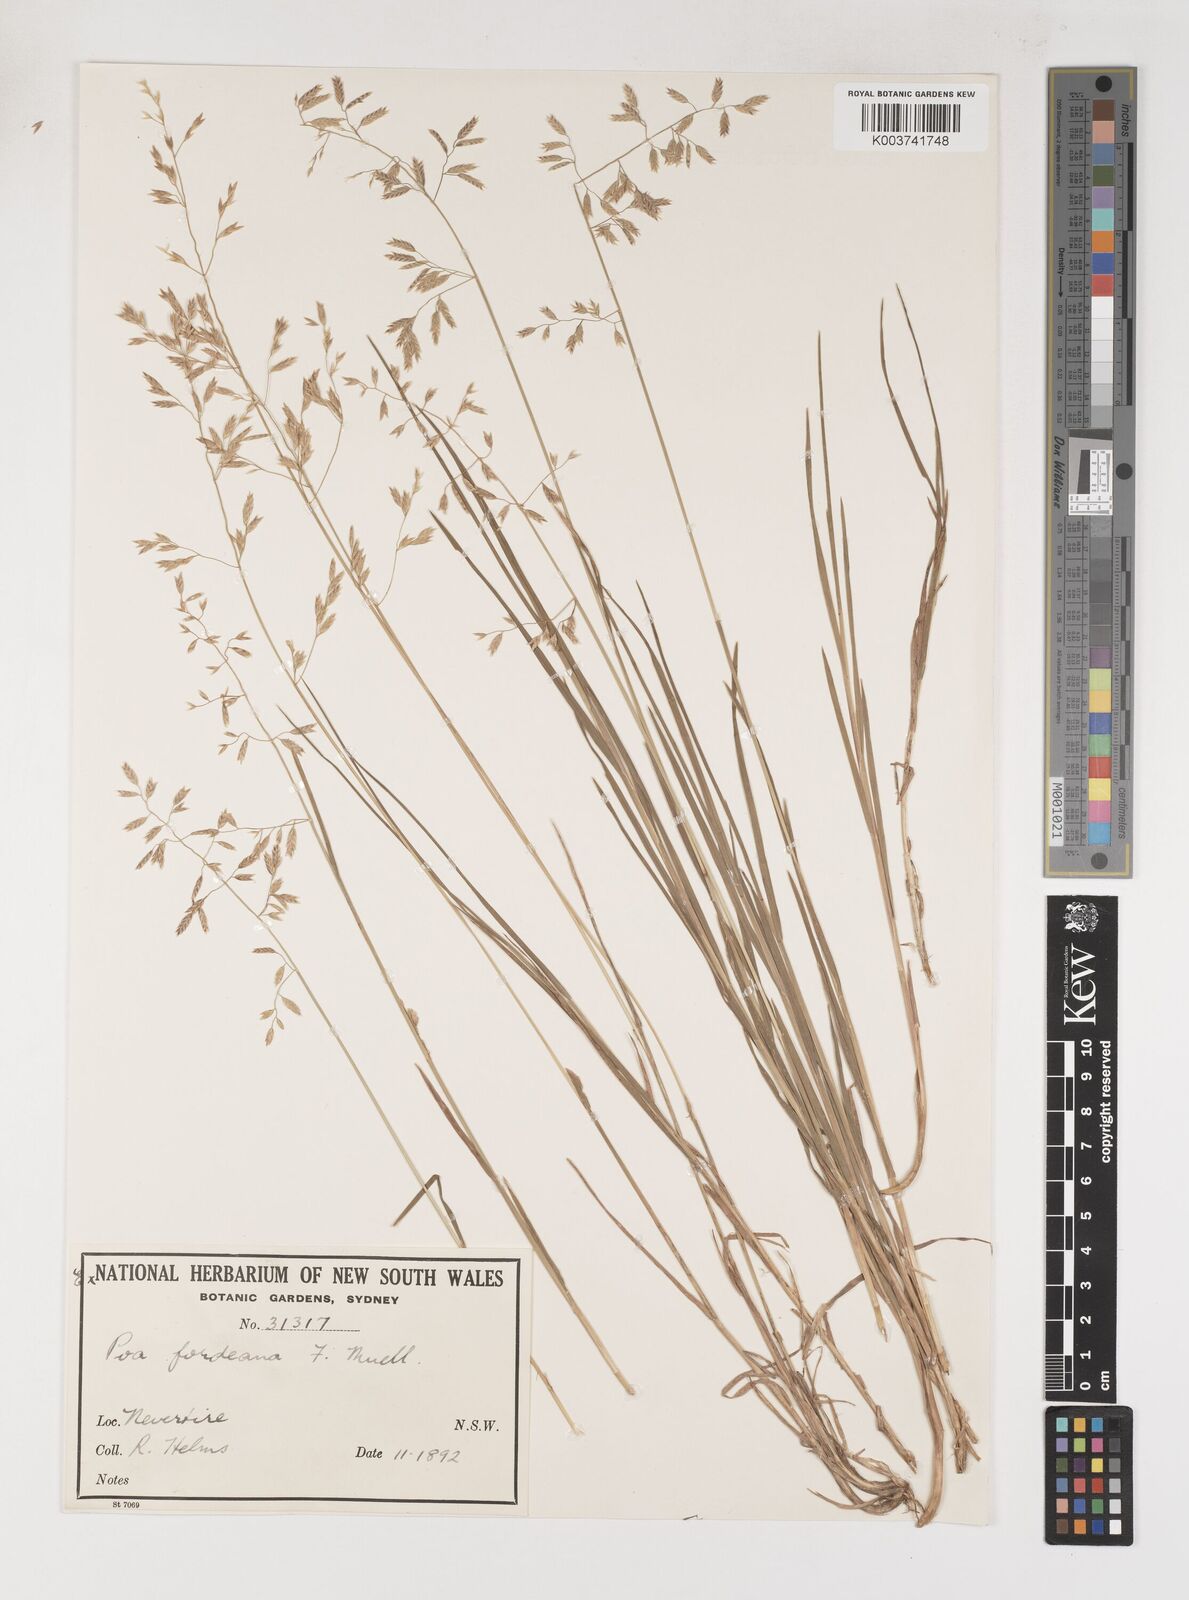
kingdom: Plantae
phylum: Tracheophyta
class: Liliopsida
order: Poales
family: Poaceae
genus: Poa
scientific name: Poa fordeana
